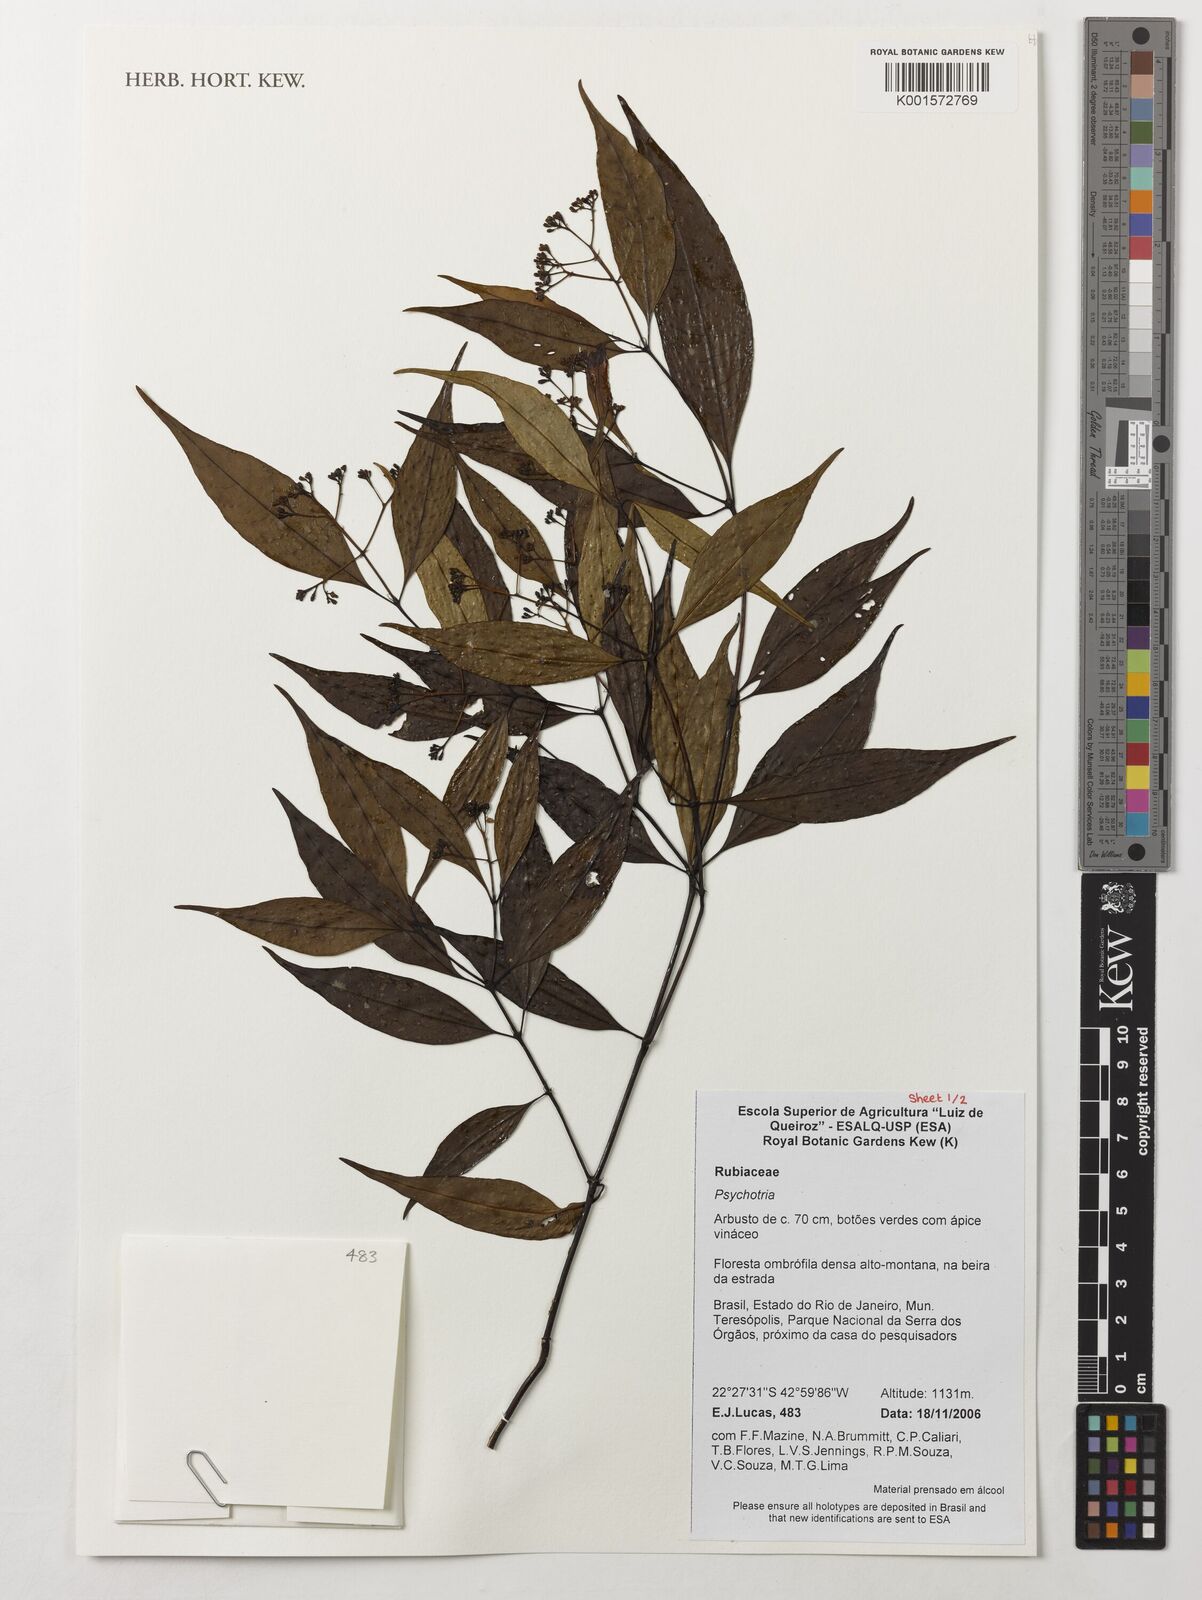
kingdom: Plantae
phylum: Tracheophyta
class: Magnoliopsida
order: Gentianales
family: Rubiaceae
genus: Psychotria
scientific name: Psychotria
